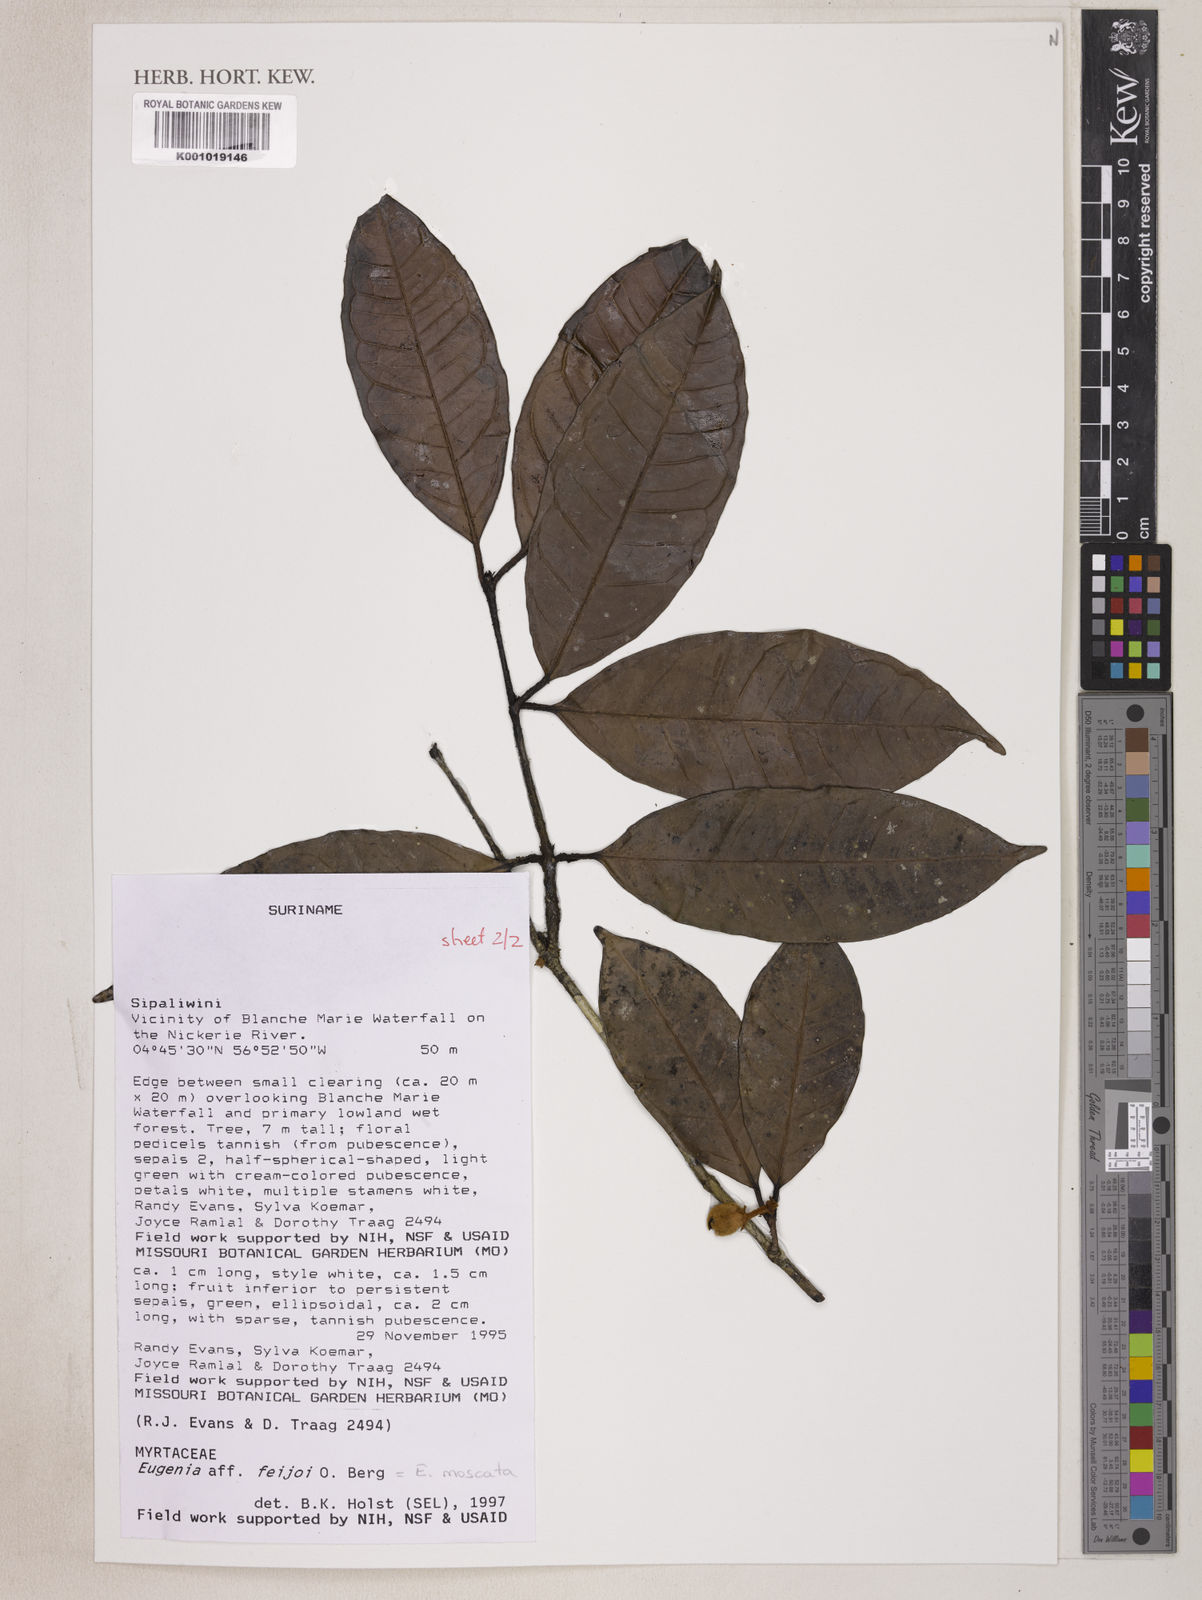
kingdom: Plantae
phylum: Tracheophyta
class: Magnoliopsida
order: Myrtales
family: Myrtaceae
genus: Eugenia
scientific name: Eugenia moschata
